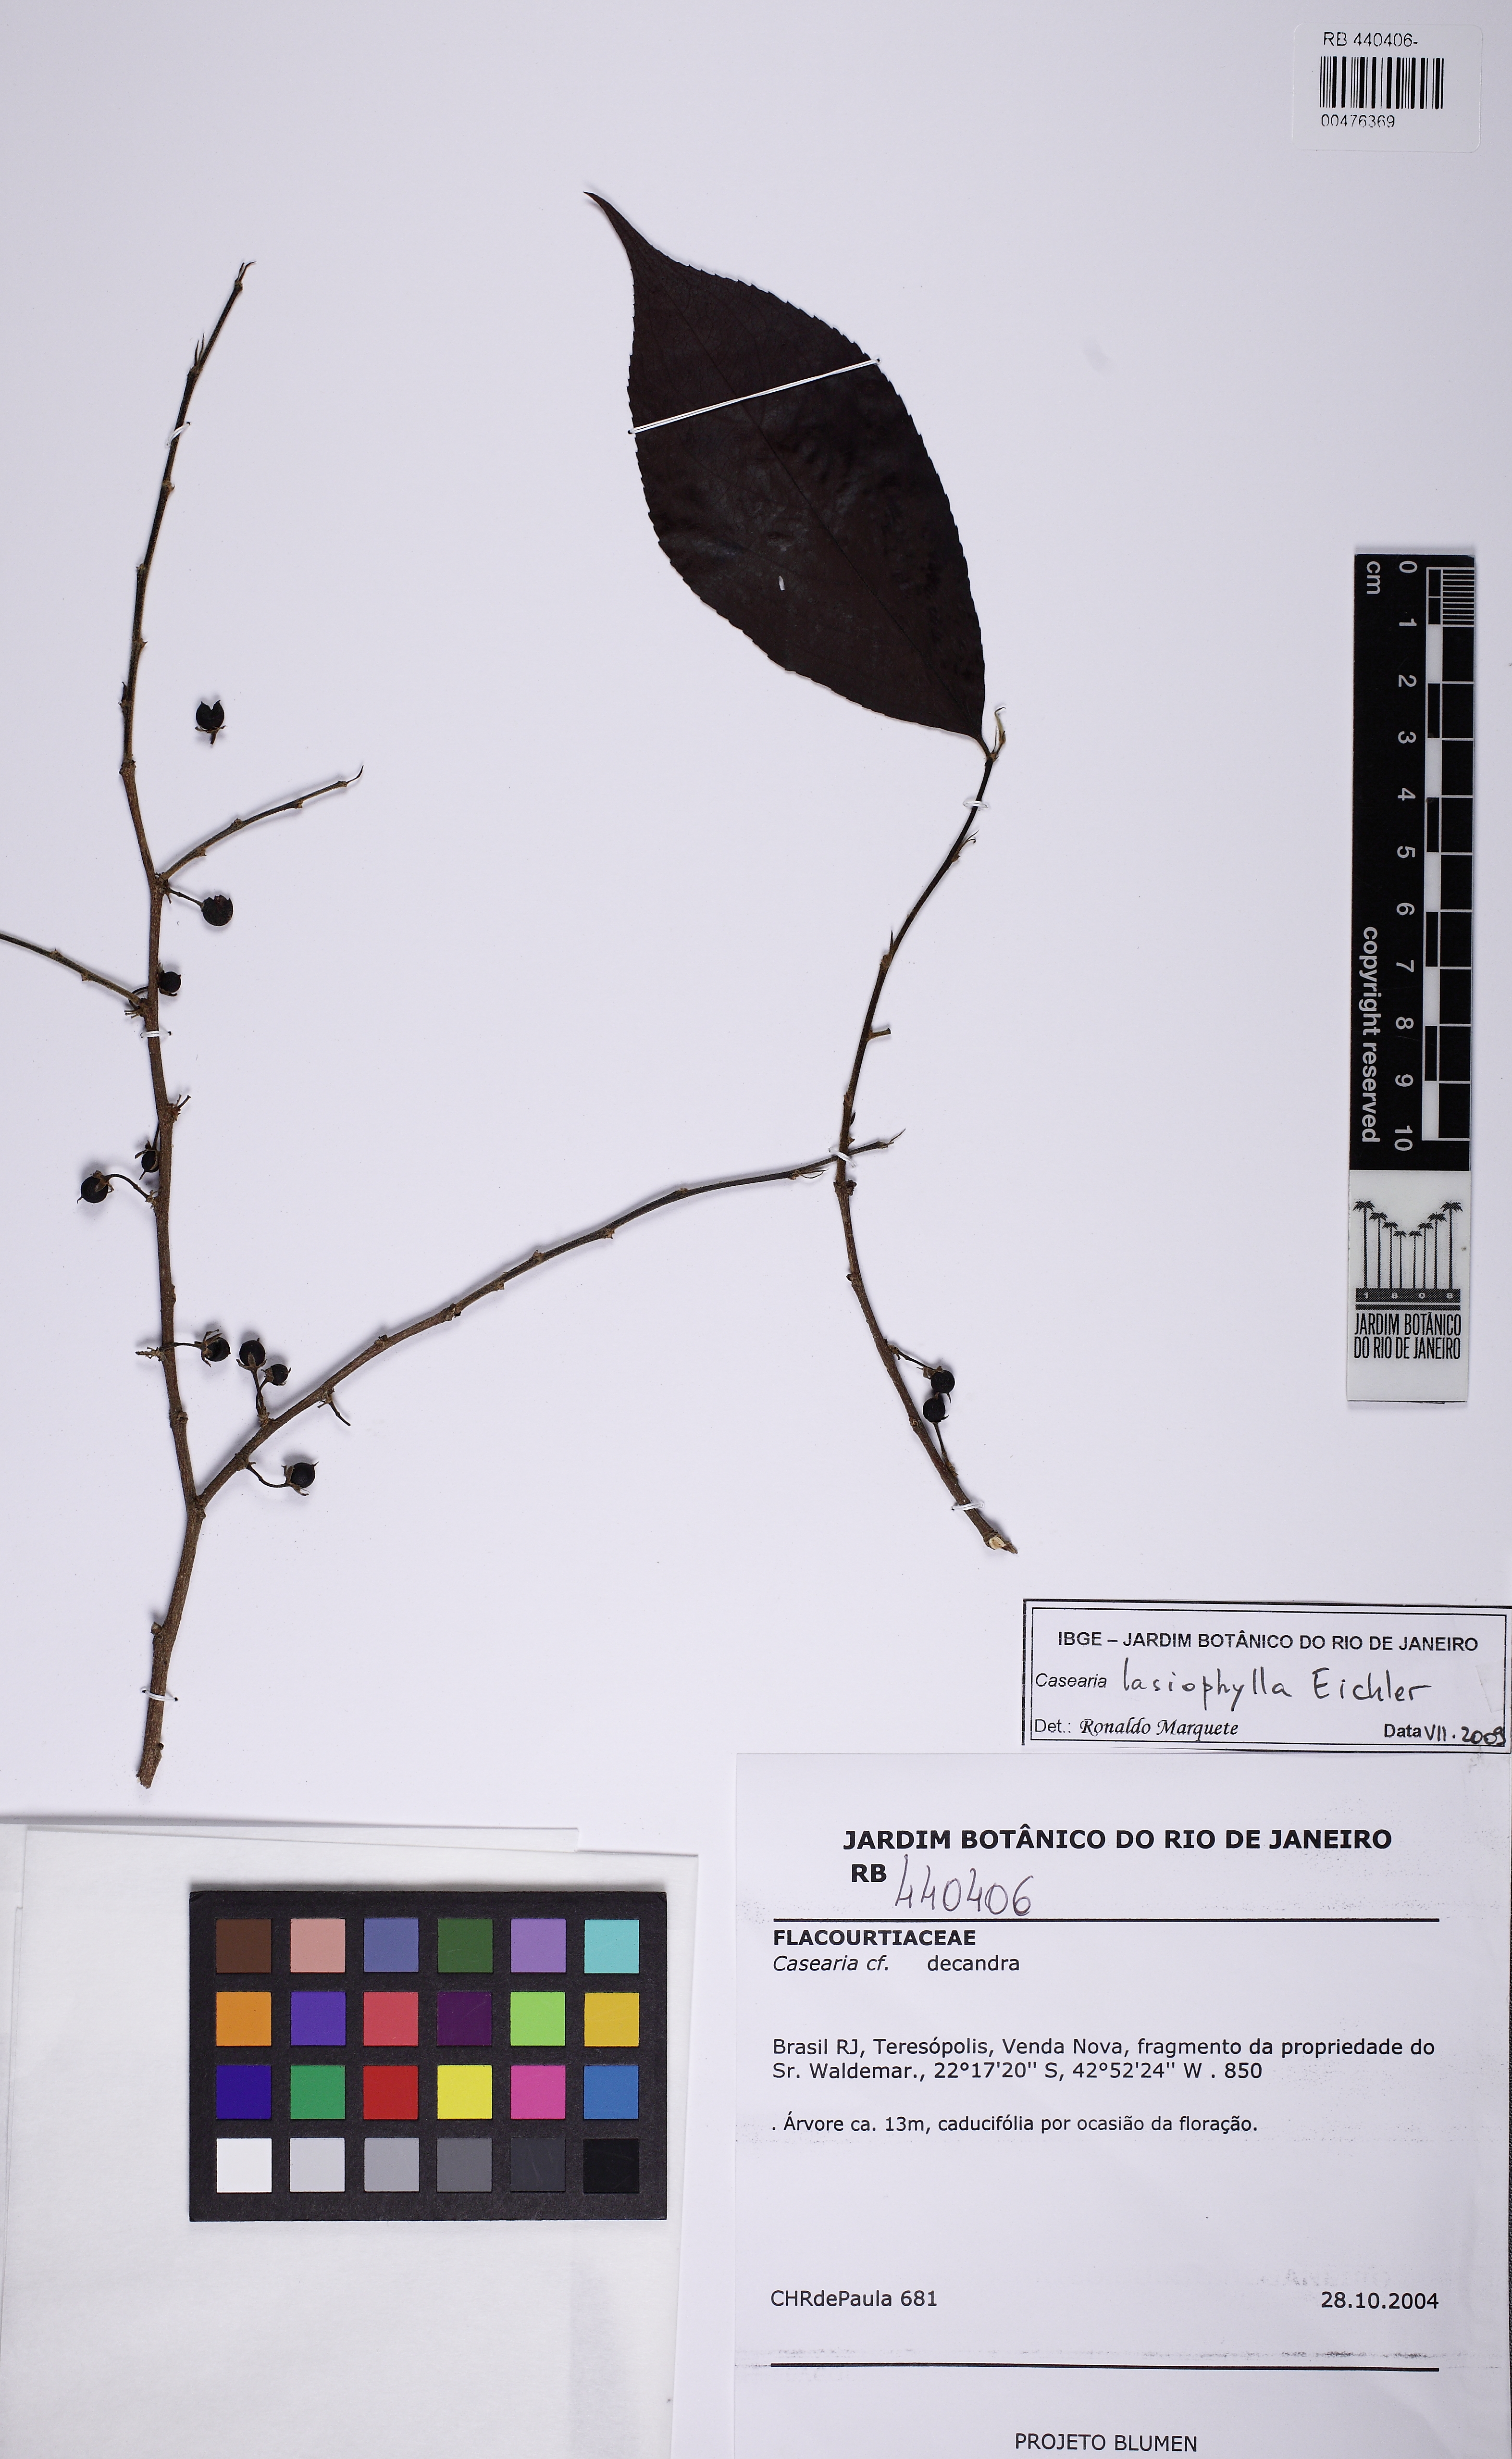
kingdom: Plantae
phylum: Tracheophyta
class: Magnoliopsida
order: Malpighiales
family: Salicaceae
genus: Casearia
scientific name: Casearia lasiophylla
